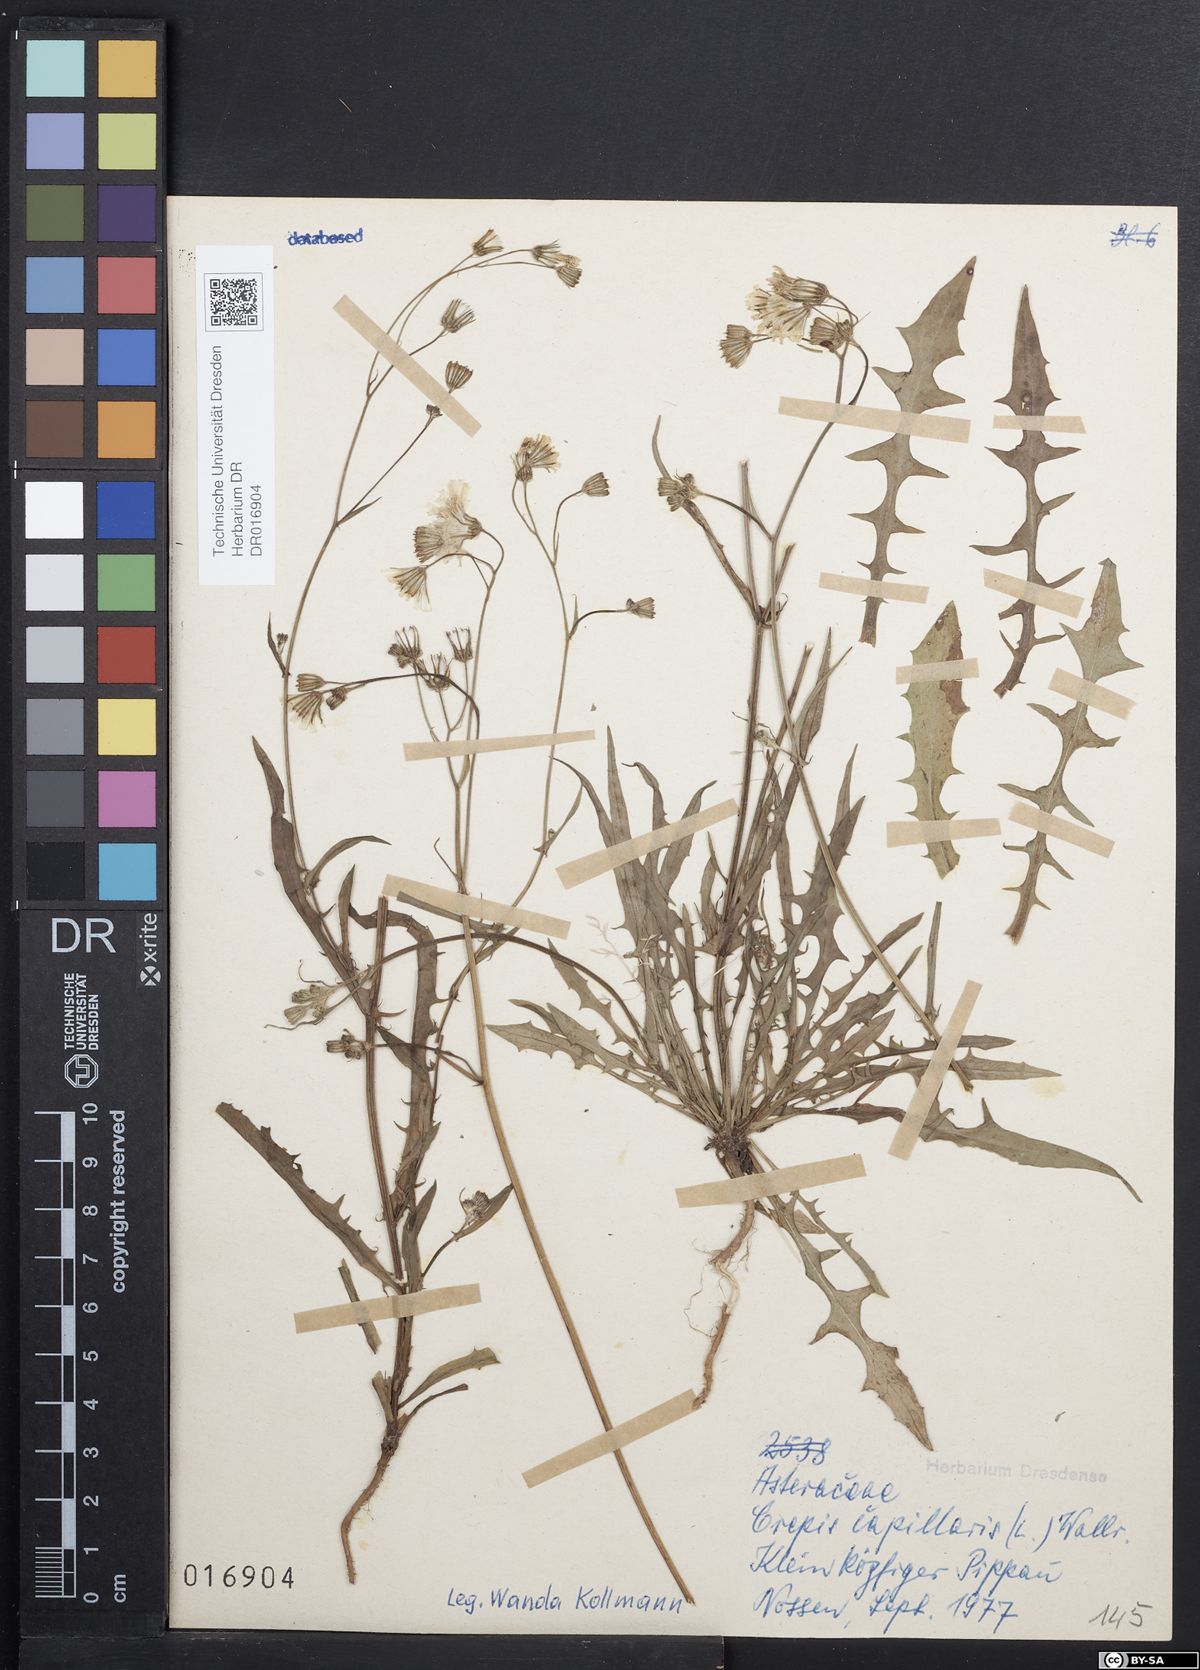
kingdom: Plantae
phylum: Tracheophyta
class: Magnoliopsida
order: Asterales
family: Asteraceae
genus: Crepis
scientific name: Crepis capillaris
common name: Smooth hawksbeard
